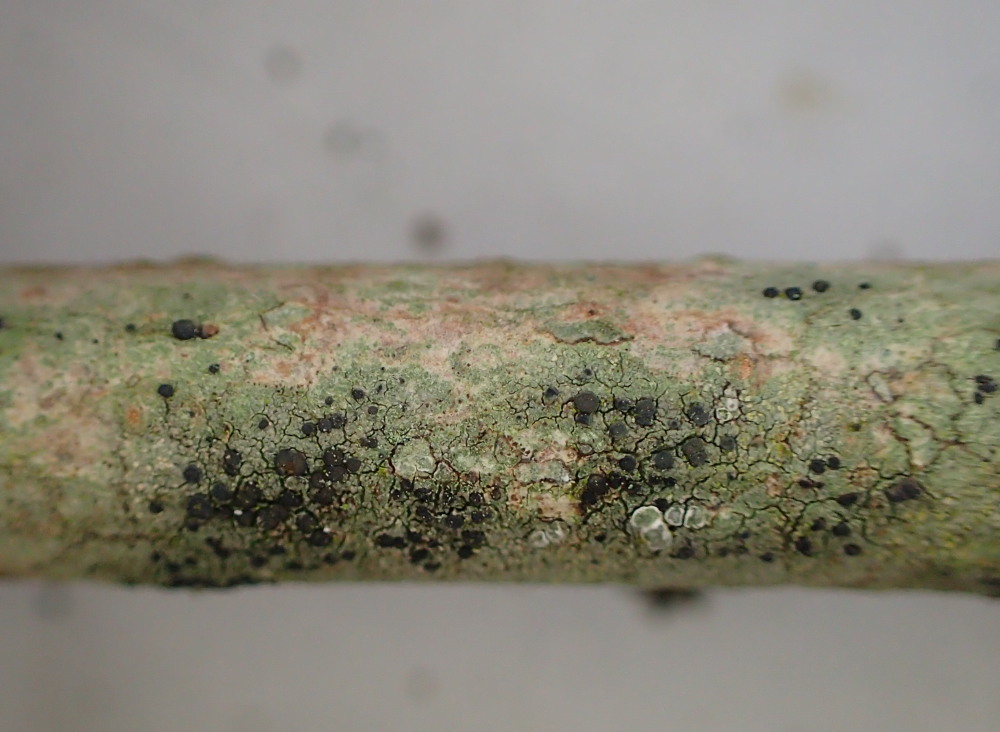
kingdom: Fungi
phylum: Ascomycota
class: Lecanoromycetes
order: Lecanorales
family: Lecanoraceae
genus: Lecidella
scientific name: Lecidella euphorea
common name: vortet skivelav
